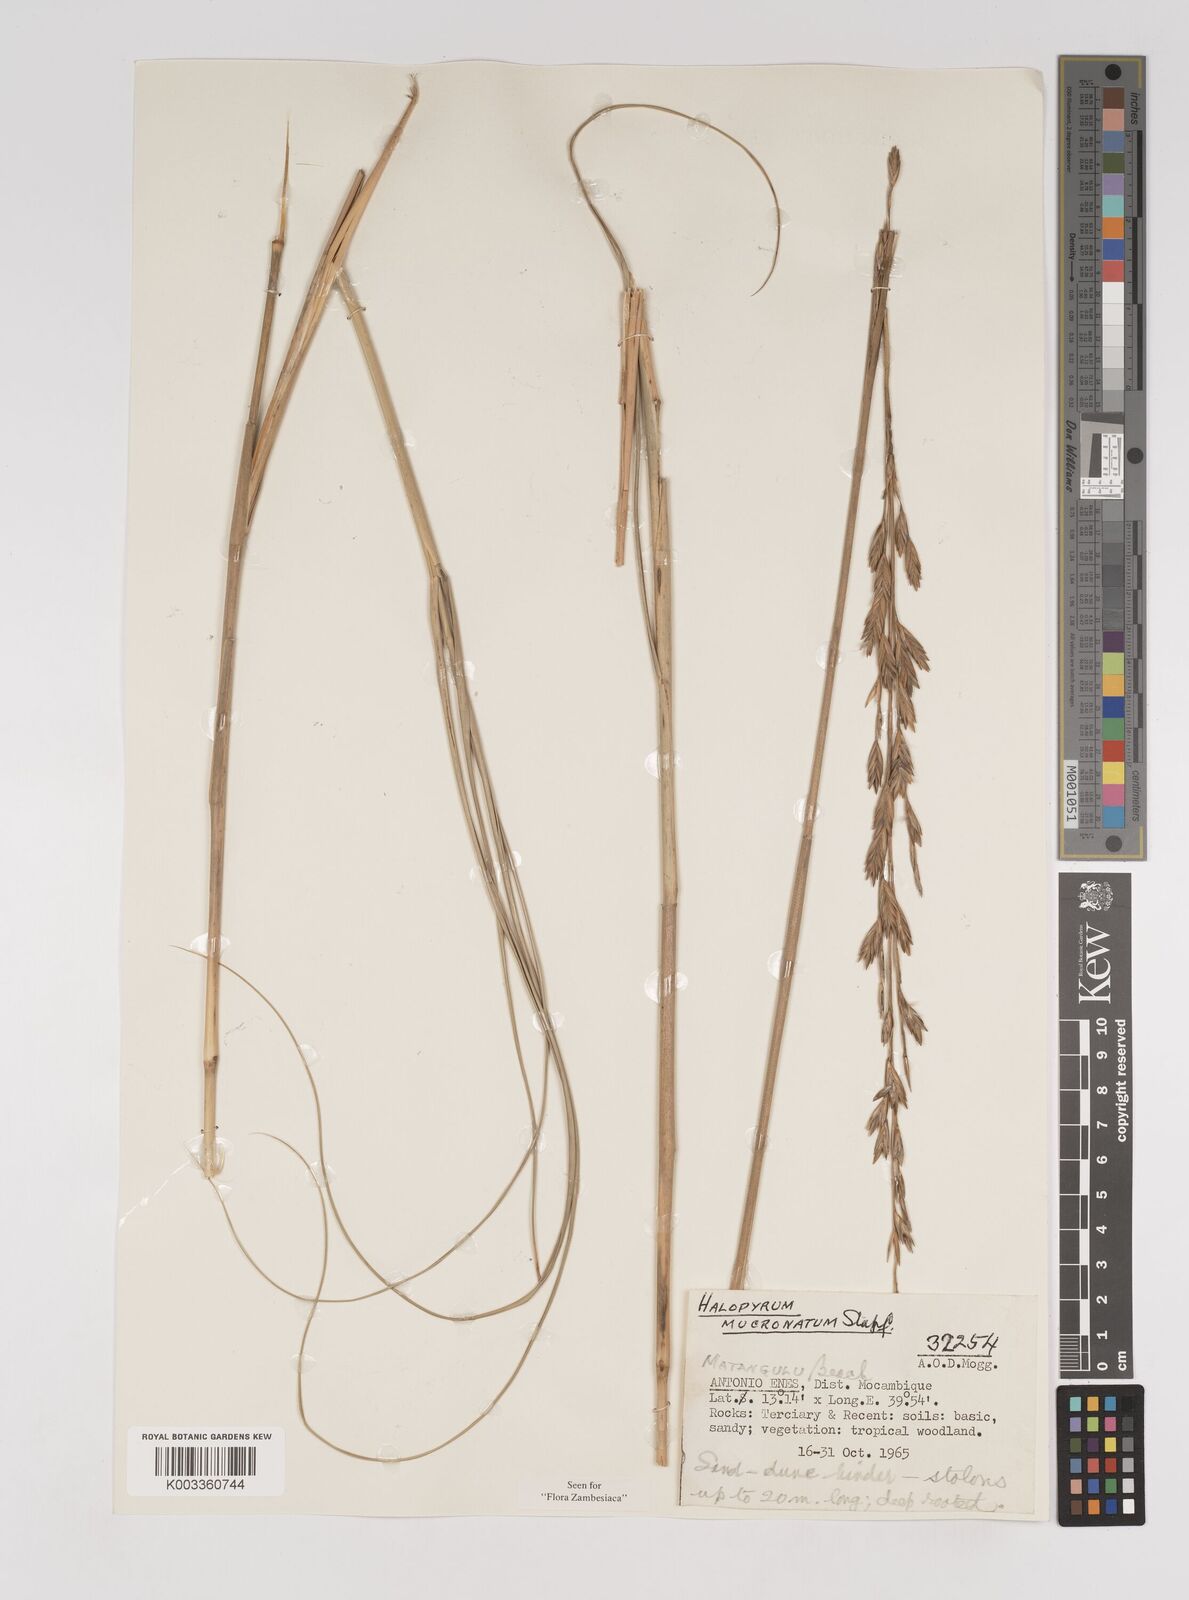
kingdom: Plantae
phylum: Tracheophyta
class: Liliopsida
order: Poales
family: Poaceae
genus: Halopyrum
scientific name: Halopyrum mucronatum
